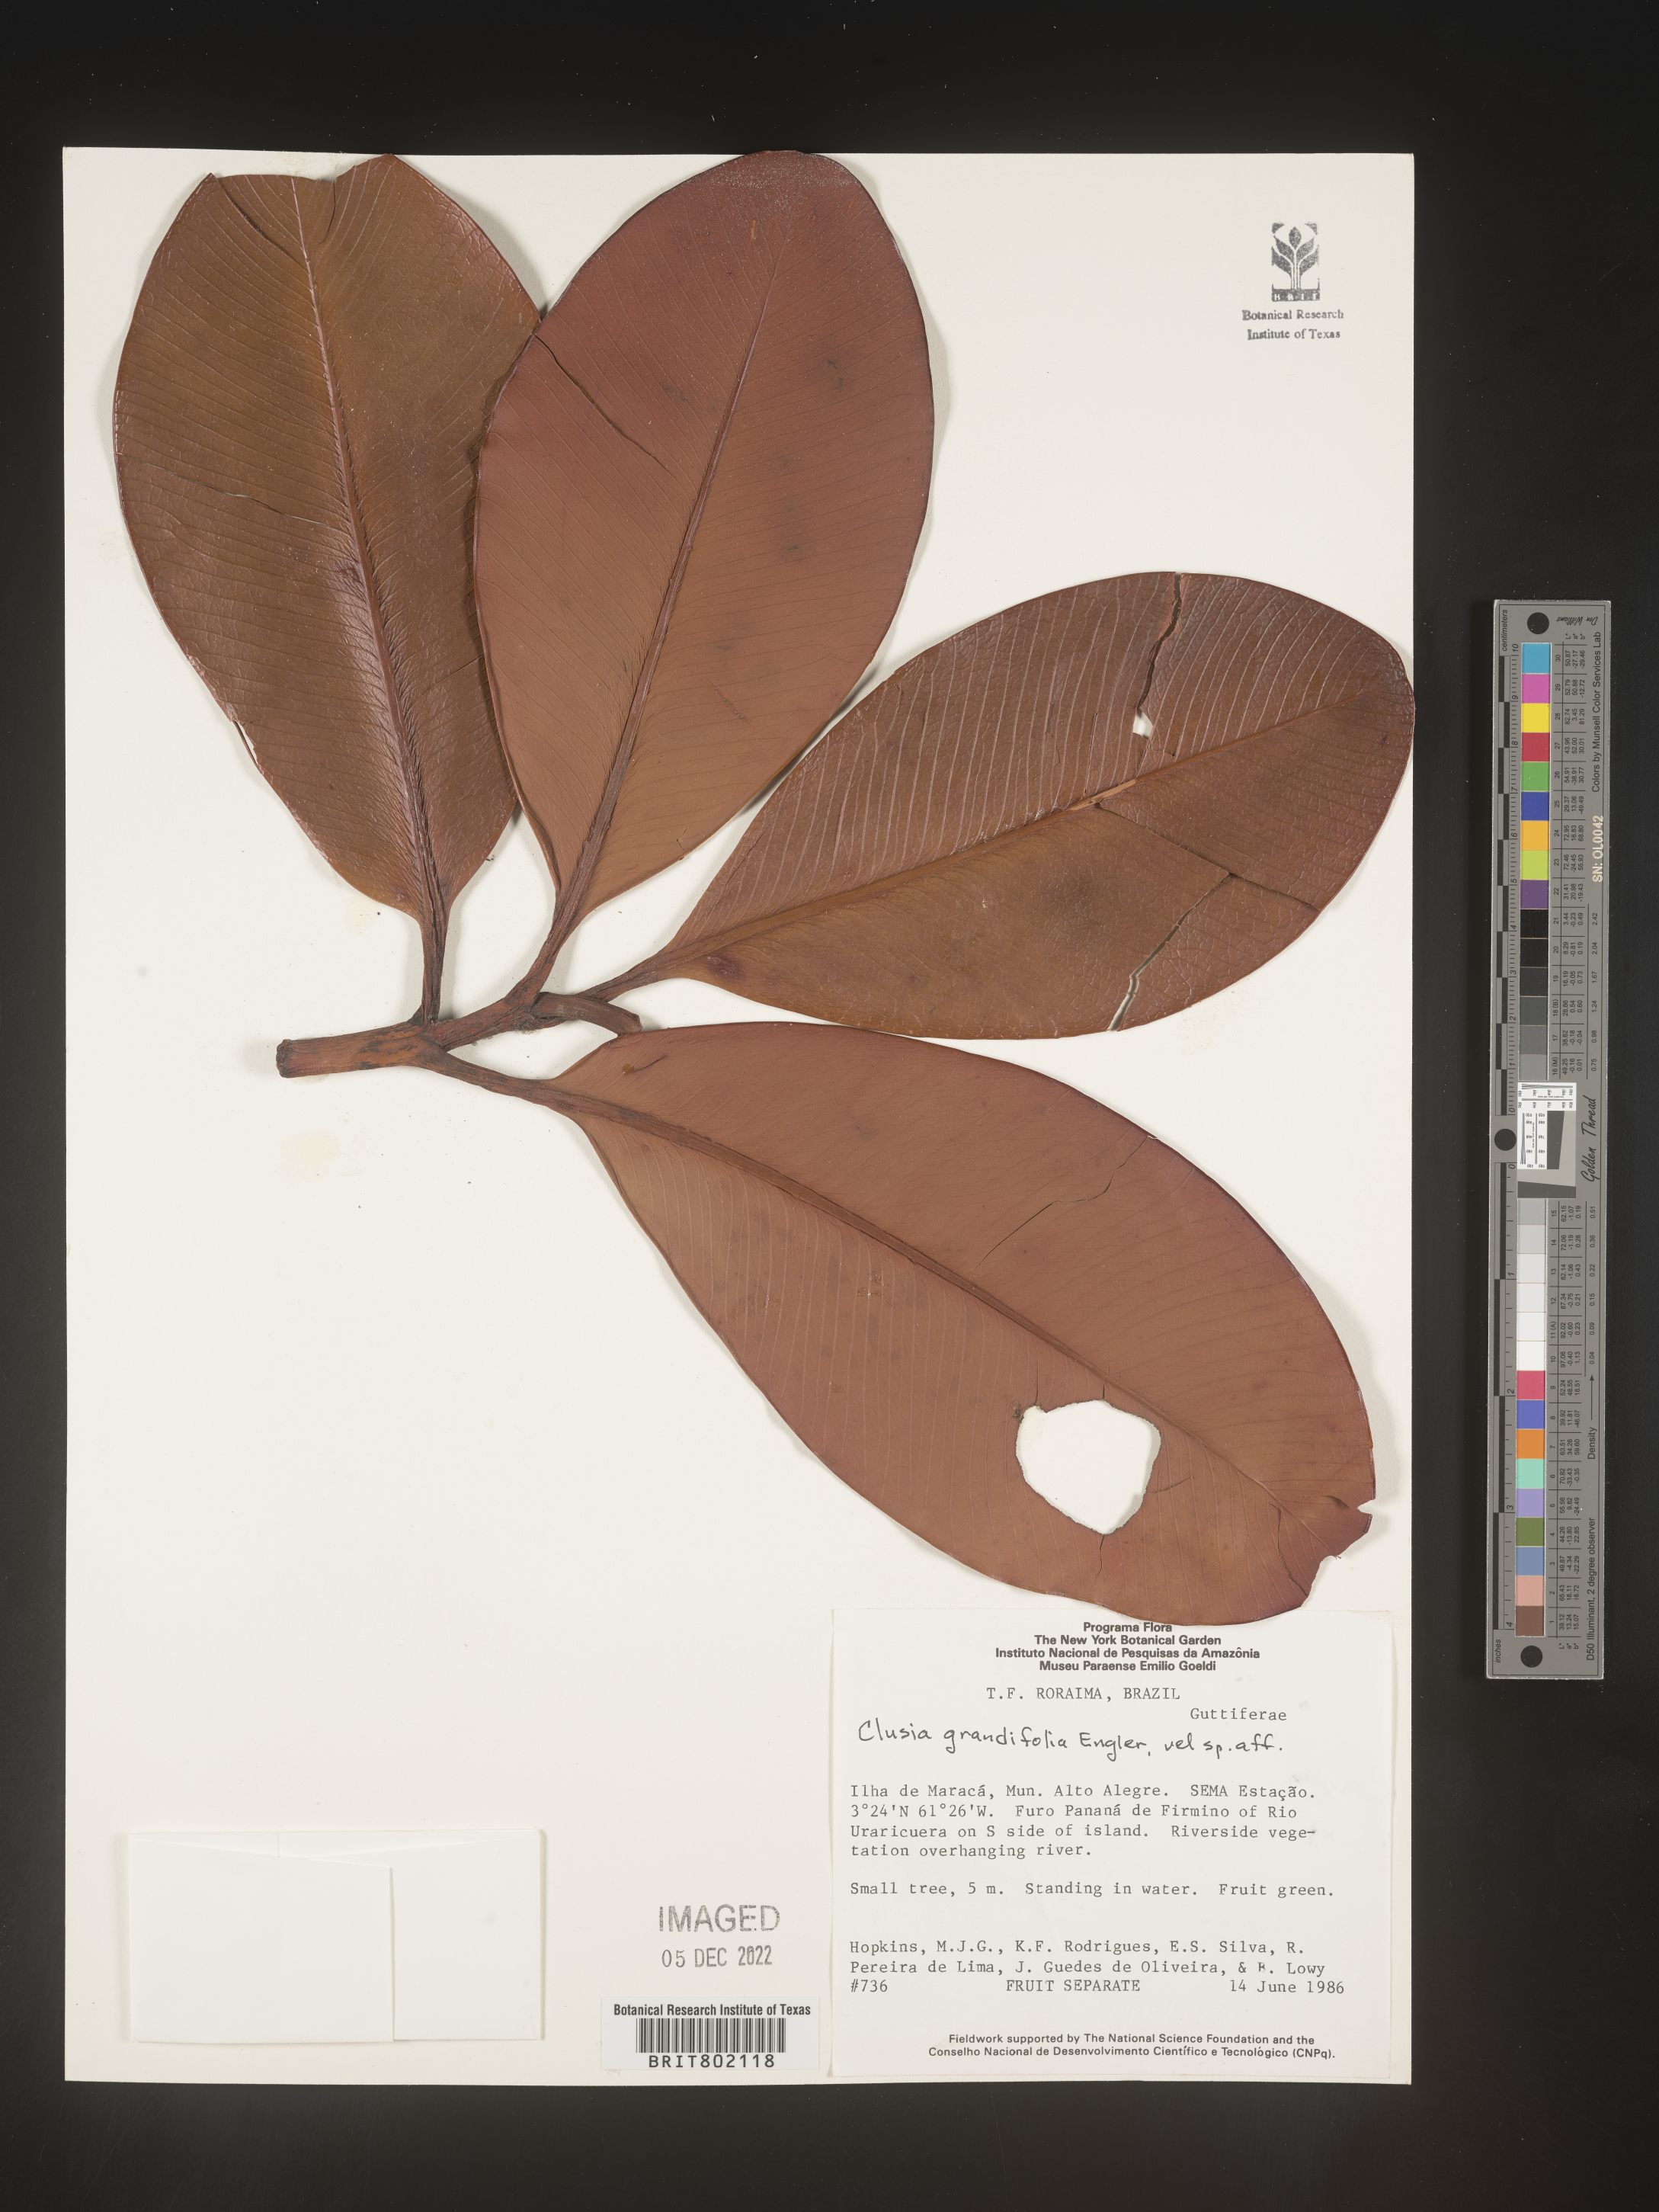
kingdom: Plantae
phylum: Tracheophyta
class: Magnoliopsida
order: Malpighiales
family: Clusiaceae
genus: Clusia
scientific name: Clusia candelabrum
